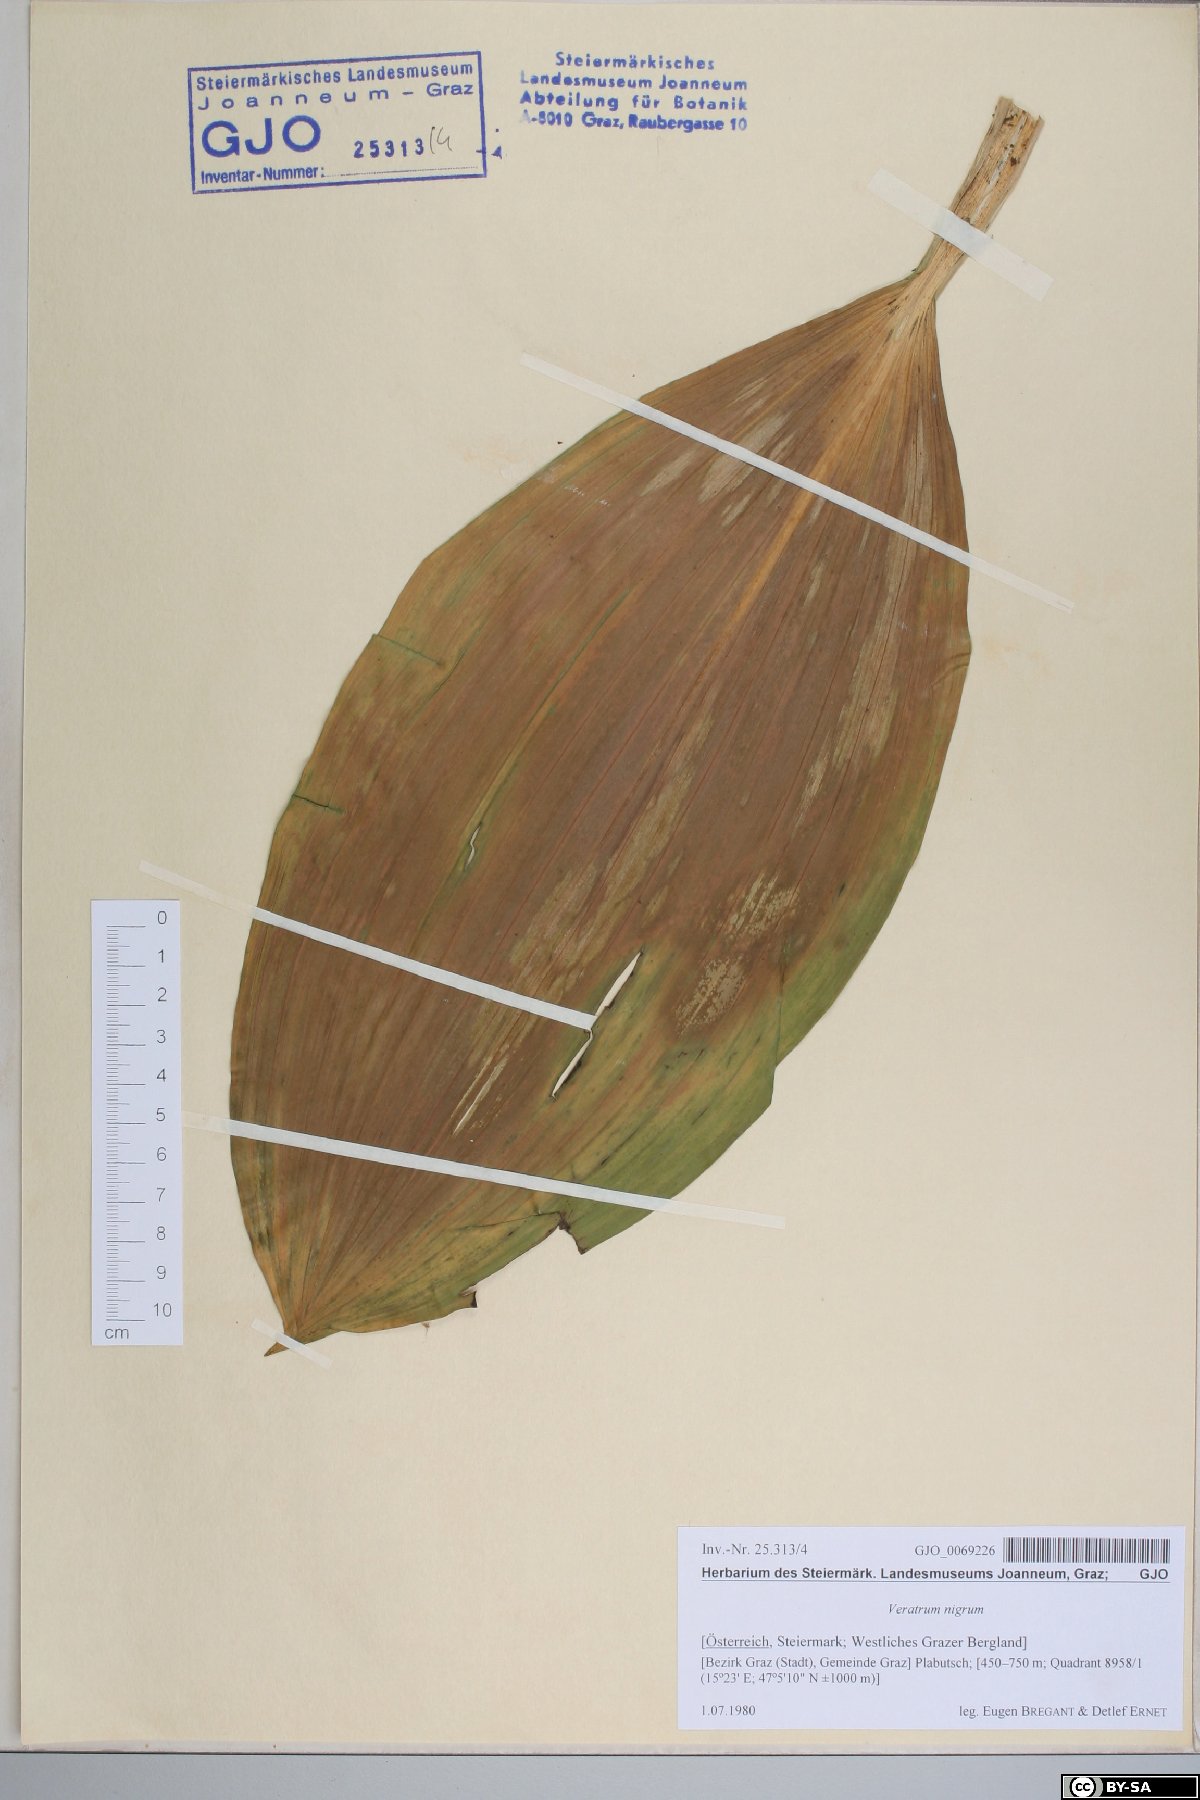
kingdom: Plantae
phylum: Tracheophyta
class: Liliopsida
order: Liliales
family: Melanthiaceae
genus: Veratrum
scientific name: Veratrum nigrum
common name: Black veratrum
